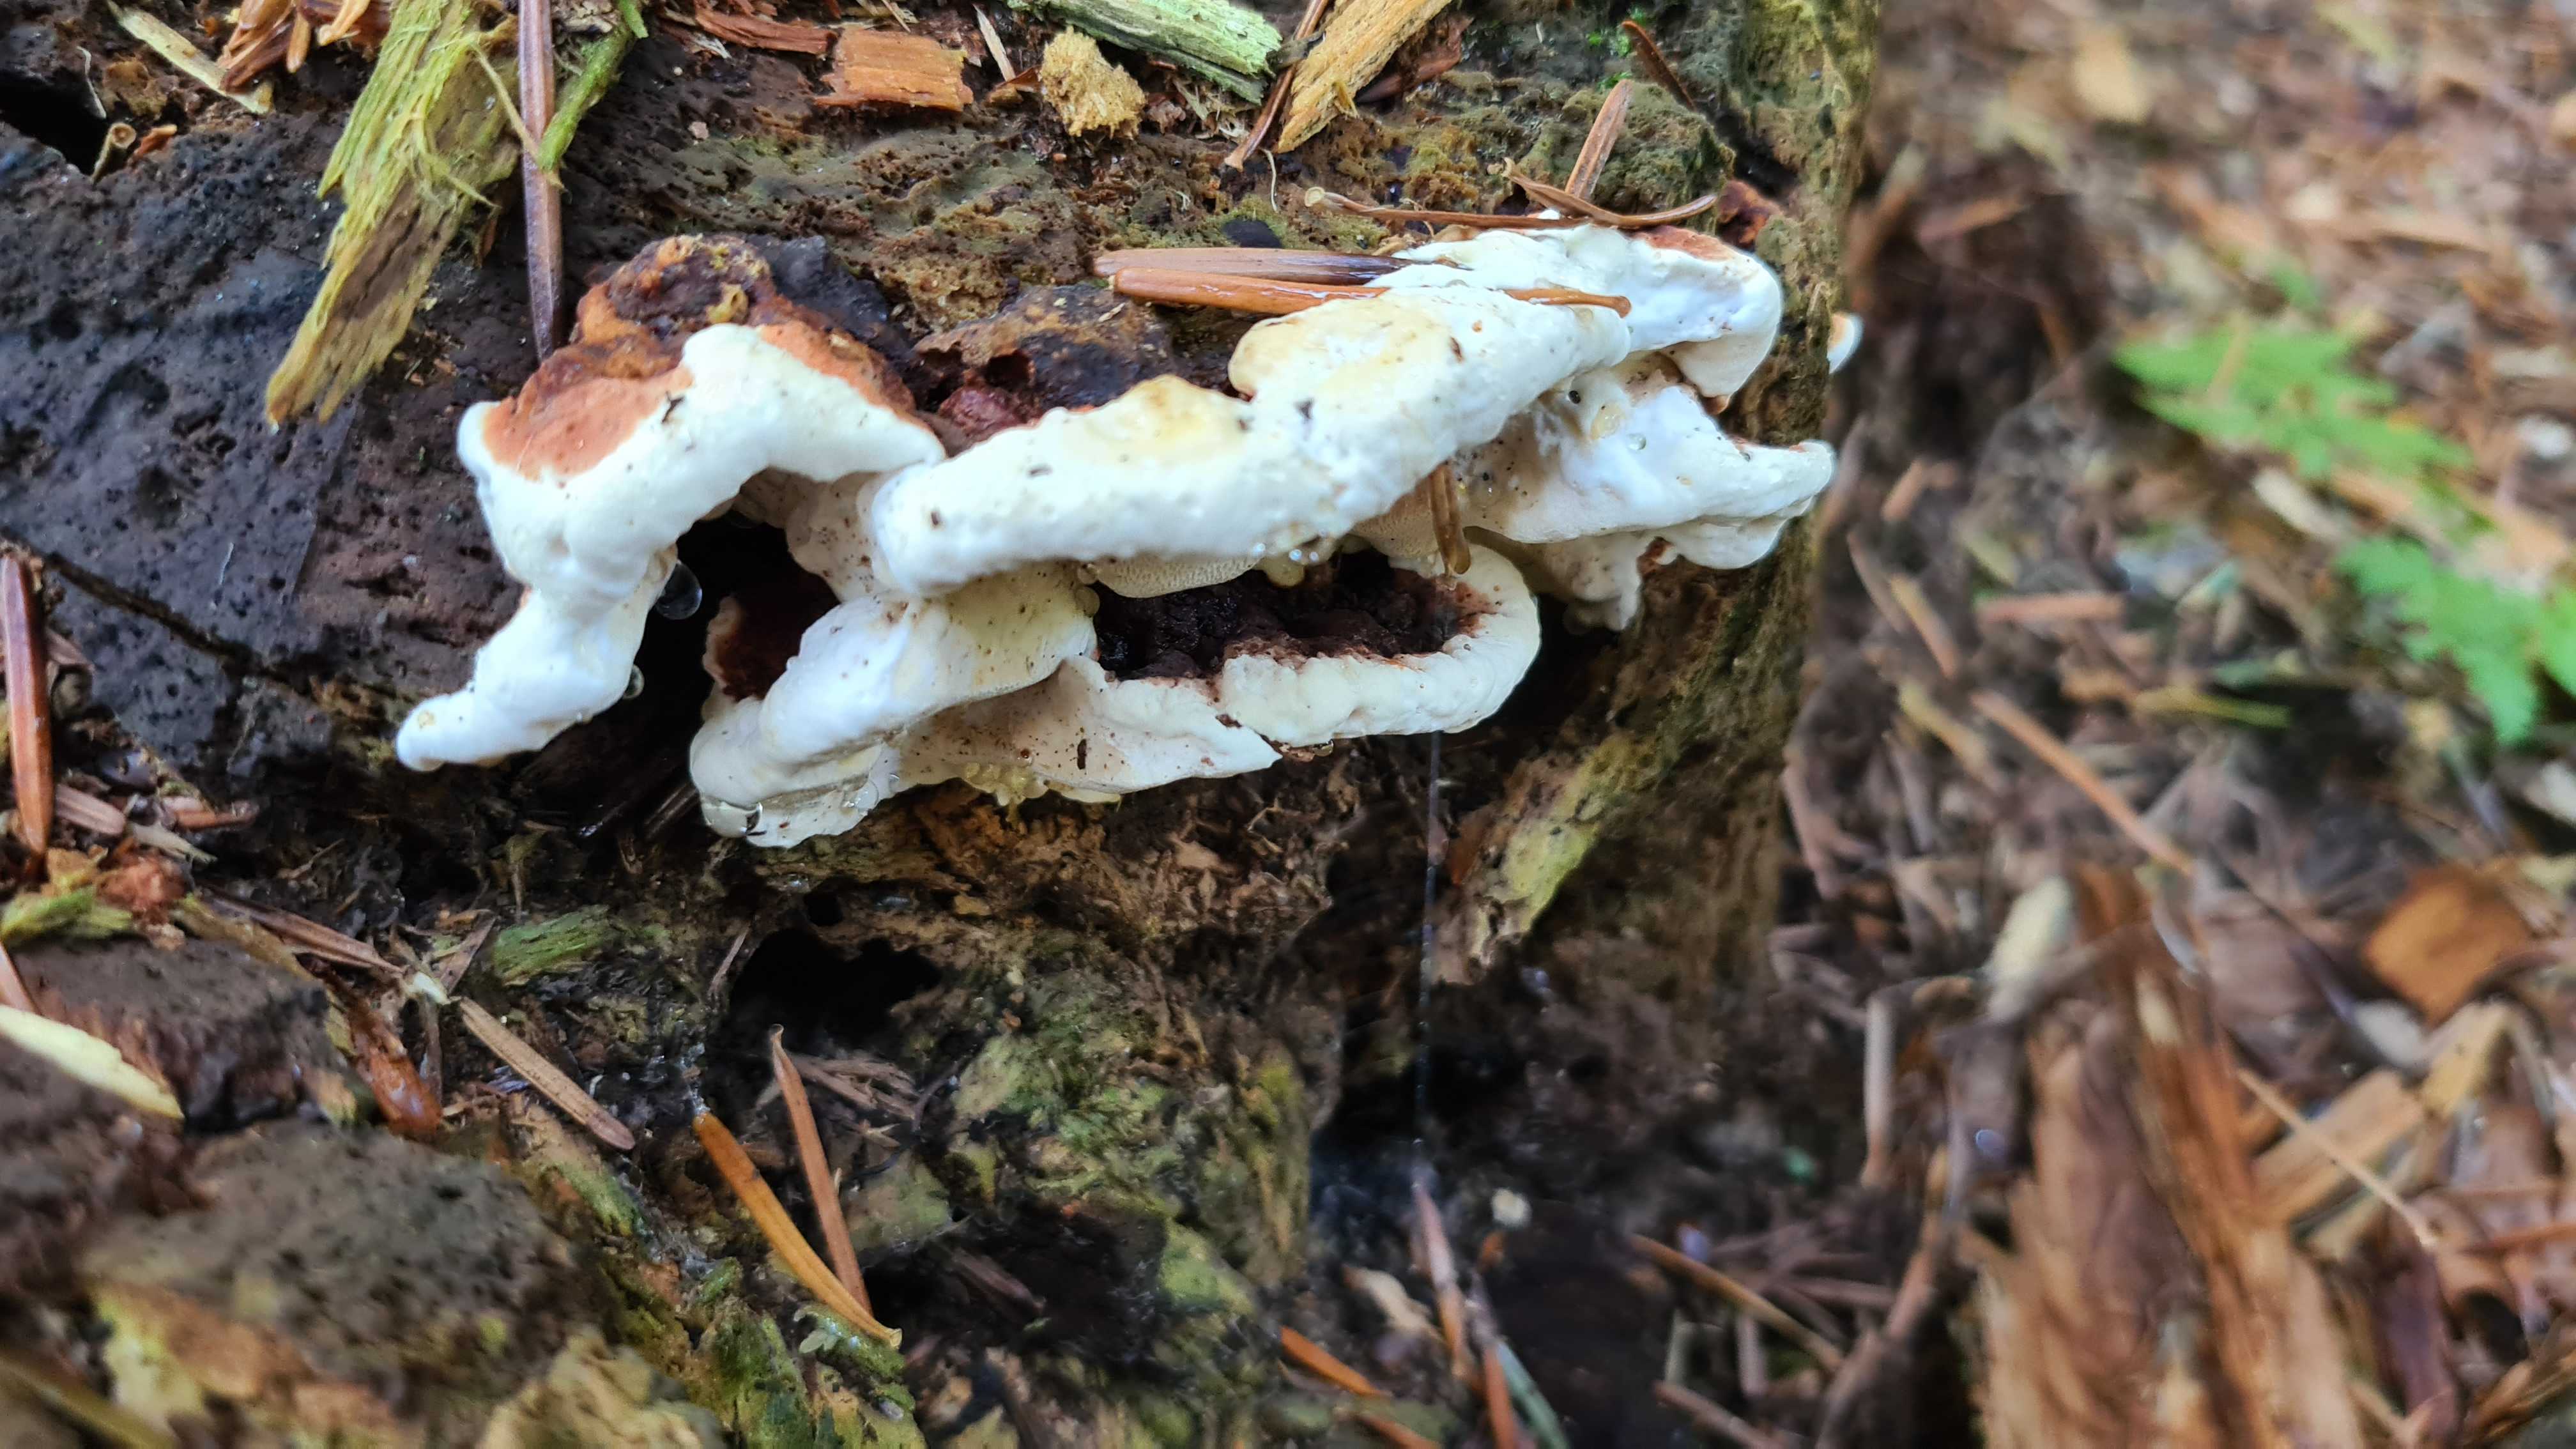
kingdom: Fungi
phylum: Basidiomycota
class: Agaricomycetes
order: Russulales
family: Bondarzewiaceae
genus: Heterobasidion
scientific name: Heterobasidion annosum
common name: almindelig rodfordærver
